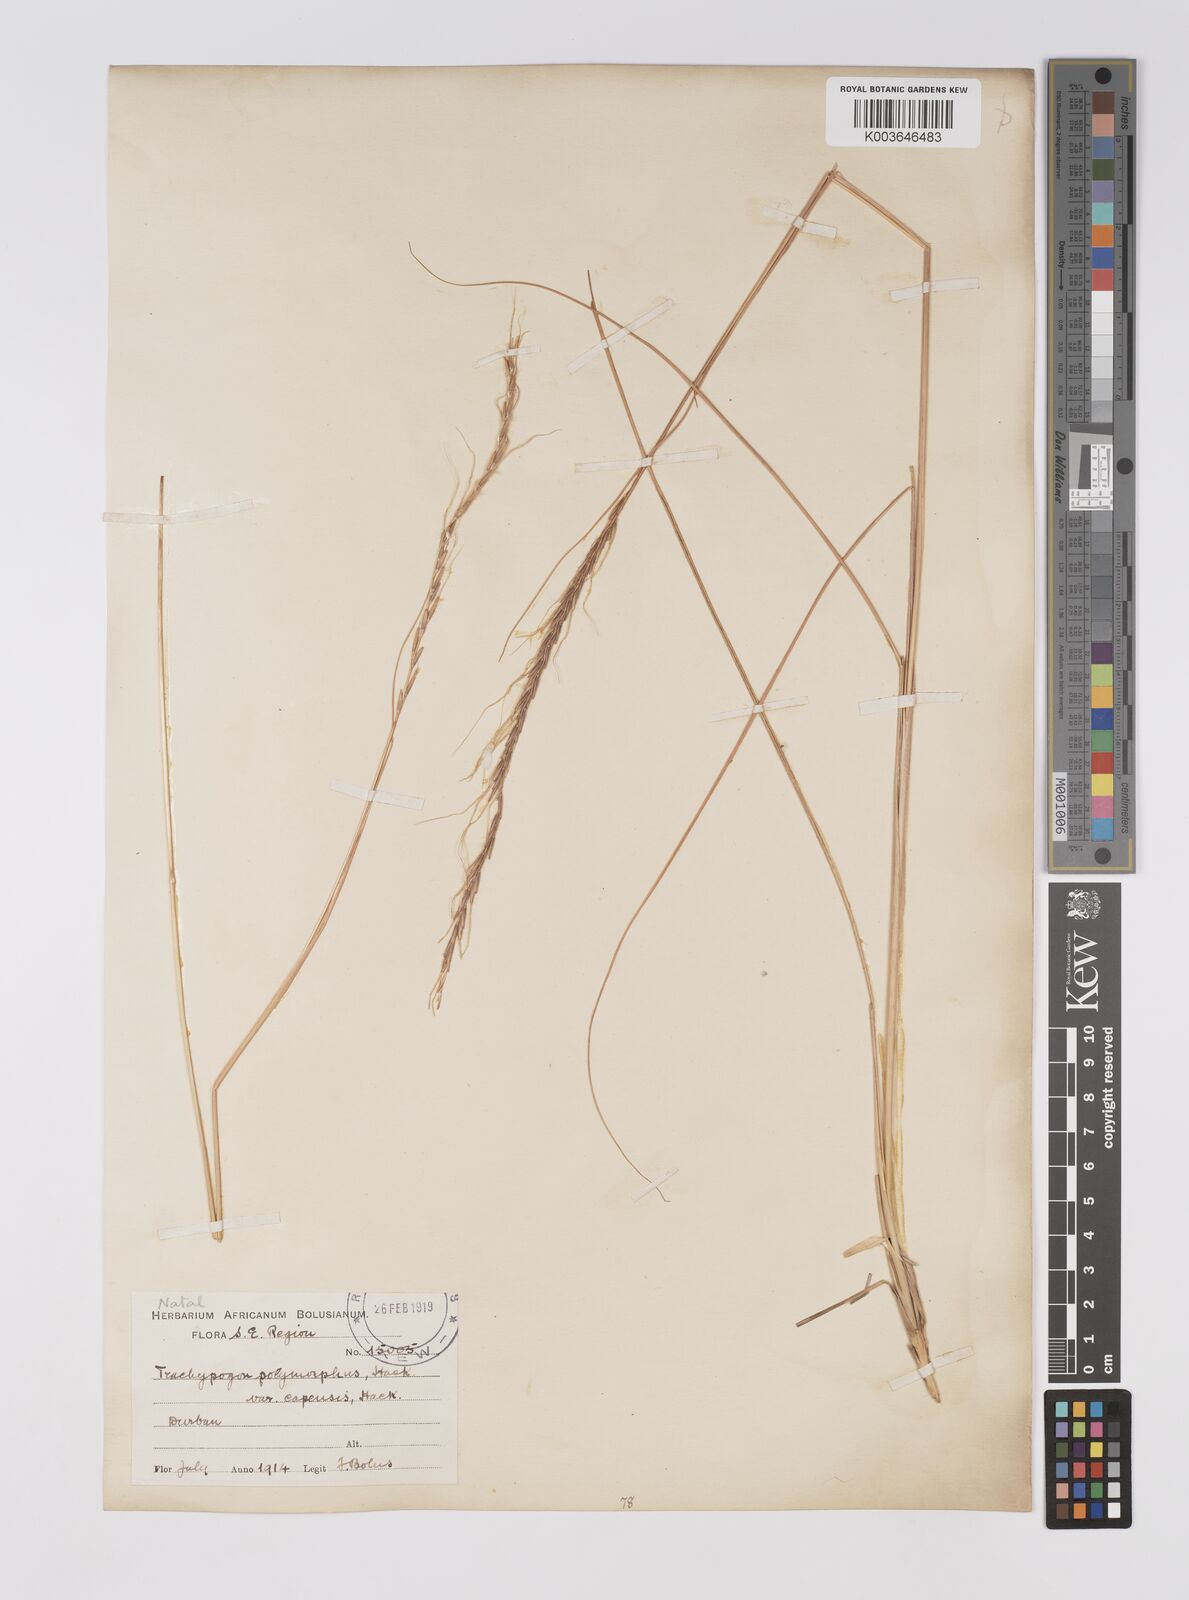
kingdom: Plantae
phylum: Tracheophyta
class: Liliopsida
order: Poales
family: Poaceae
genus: Trachypogon
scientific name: Trachypogon spicatus
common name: Crinkle-awn
